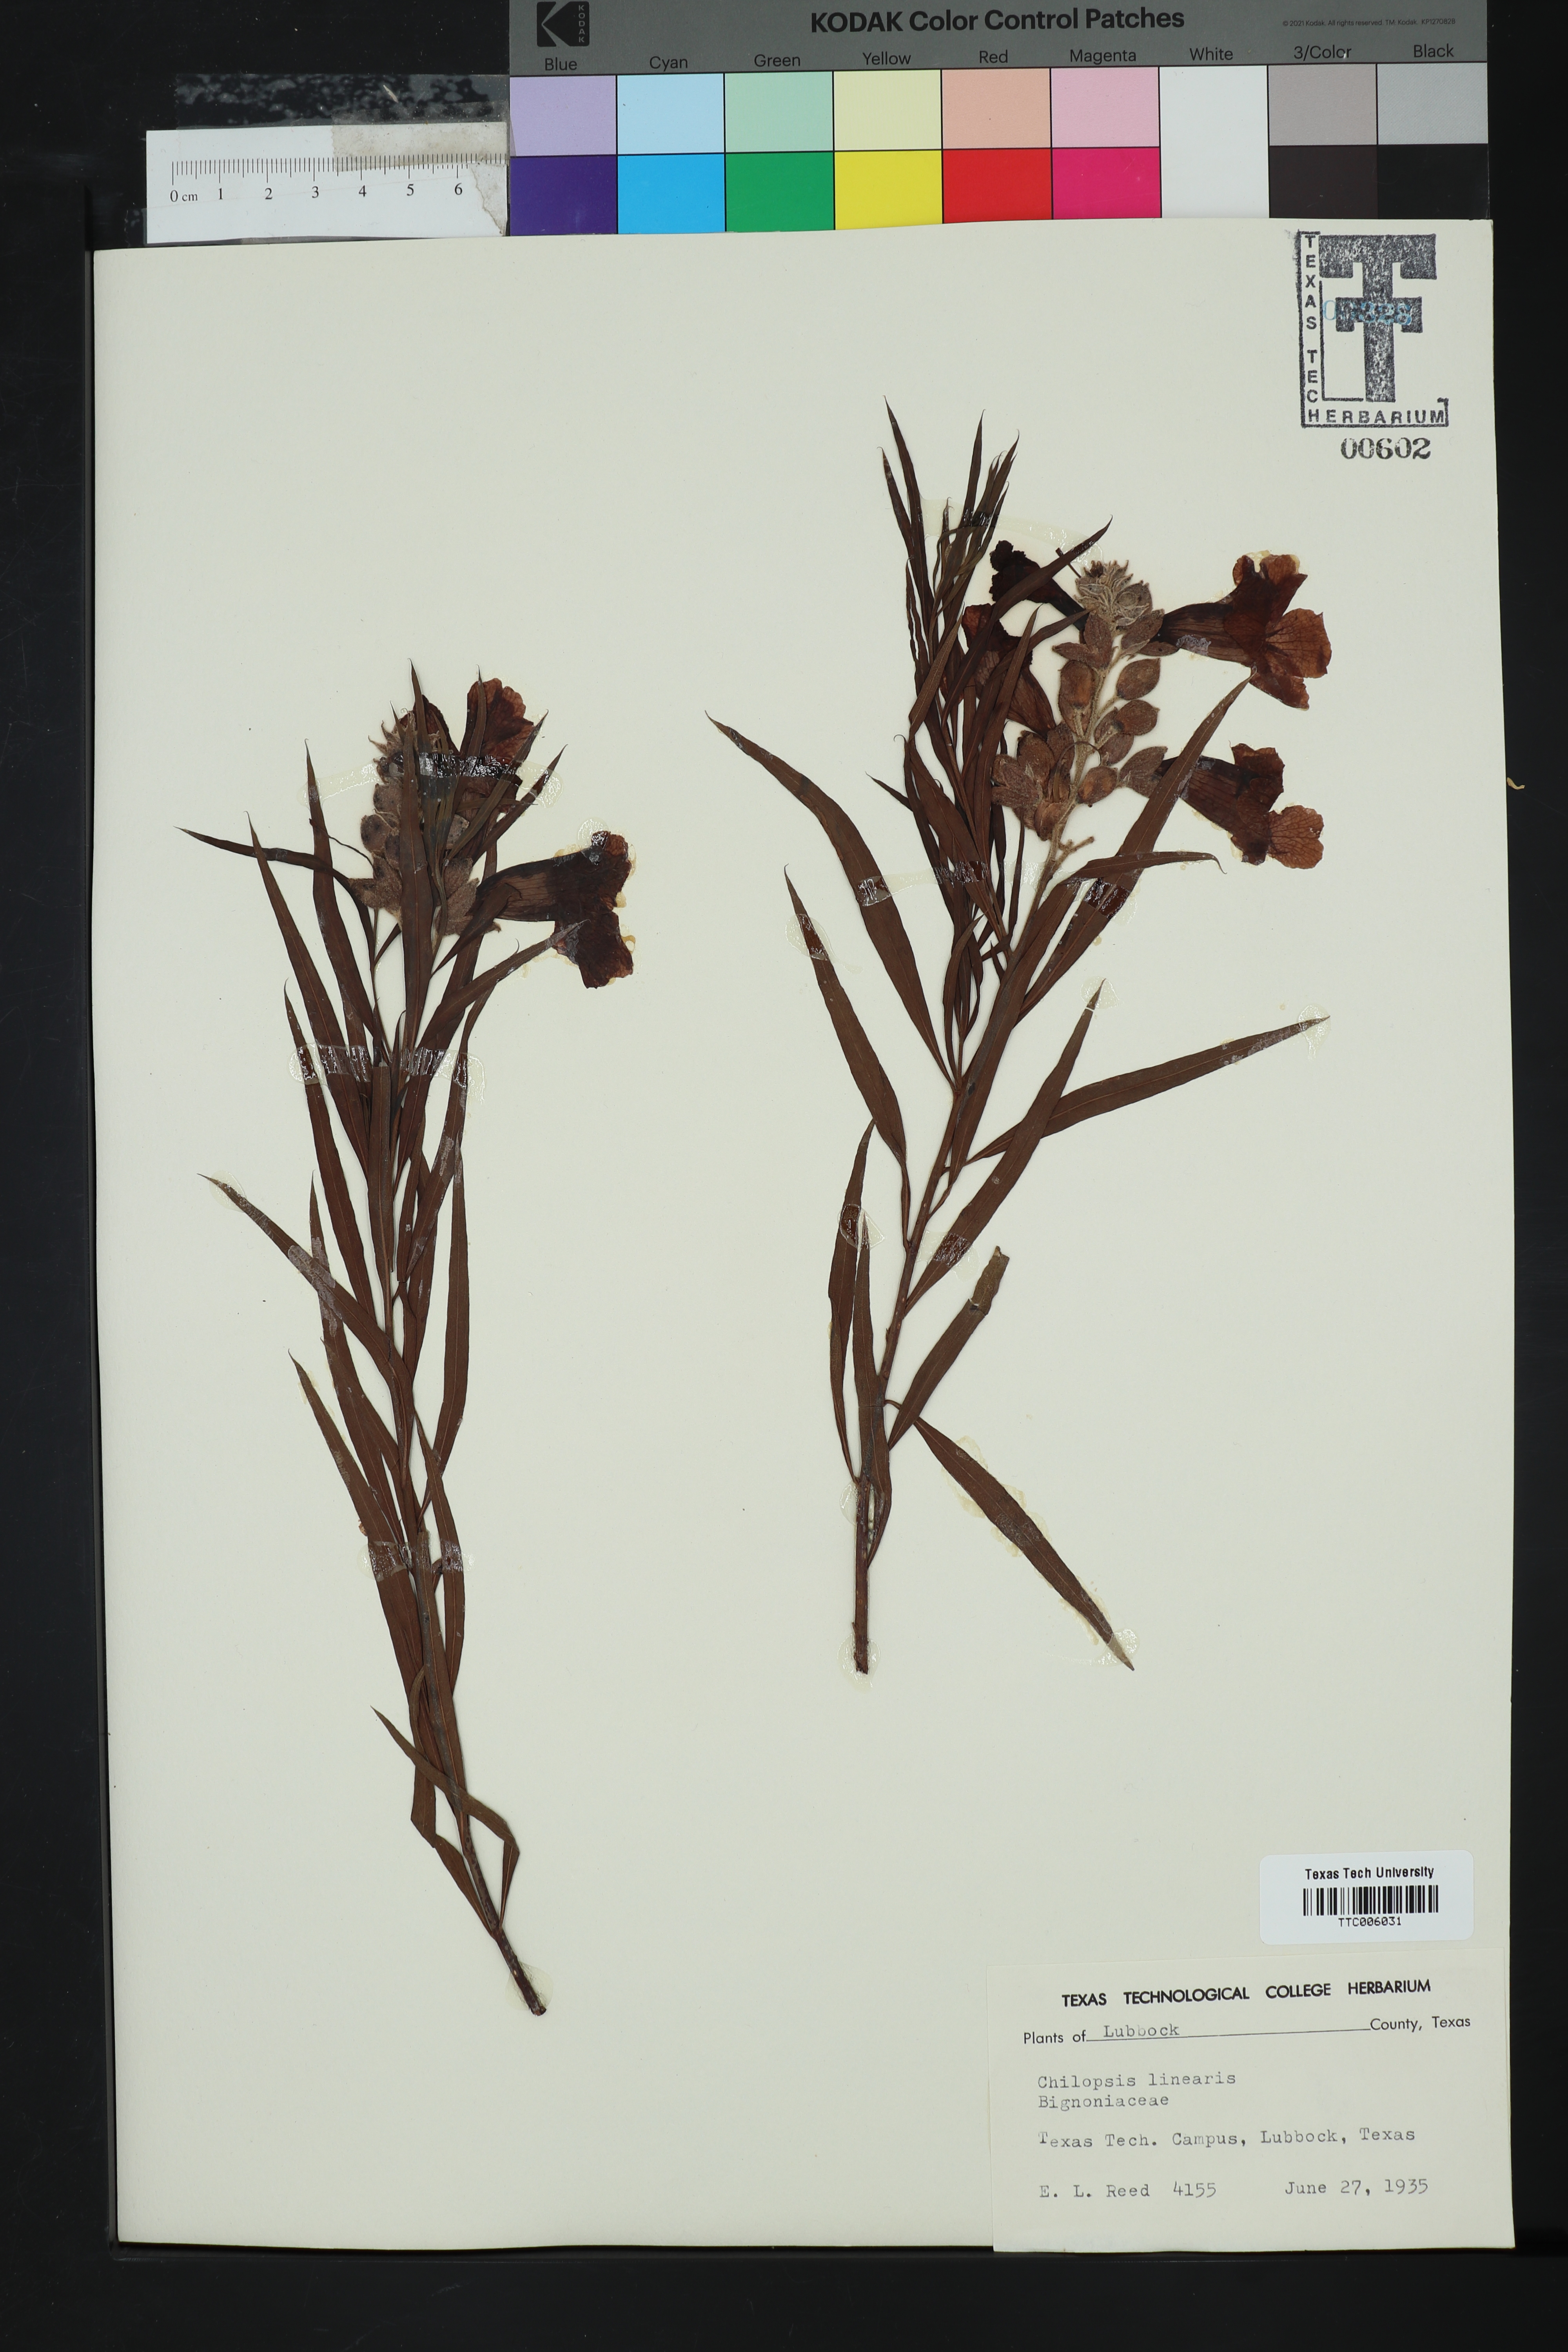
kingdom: Plantae
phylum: Tracheophyta
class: Magnoliopsida
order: Lamiales
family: Bignoniaceae
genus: Chilopsis
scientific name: Chilopsis linearis
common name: Desert-willow
